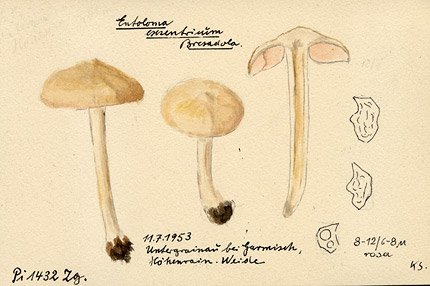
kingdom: Fungi
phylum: Basidiomycota
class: Agaricomycetes
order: Agaricales
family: Entolomataceae
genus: Entoloma
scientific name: Entoloma excentricum
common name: Excentric pinkgill
